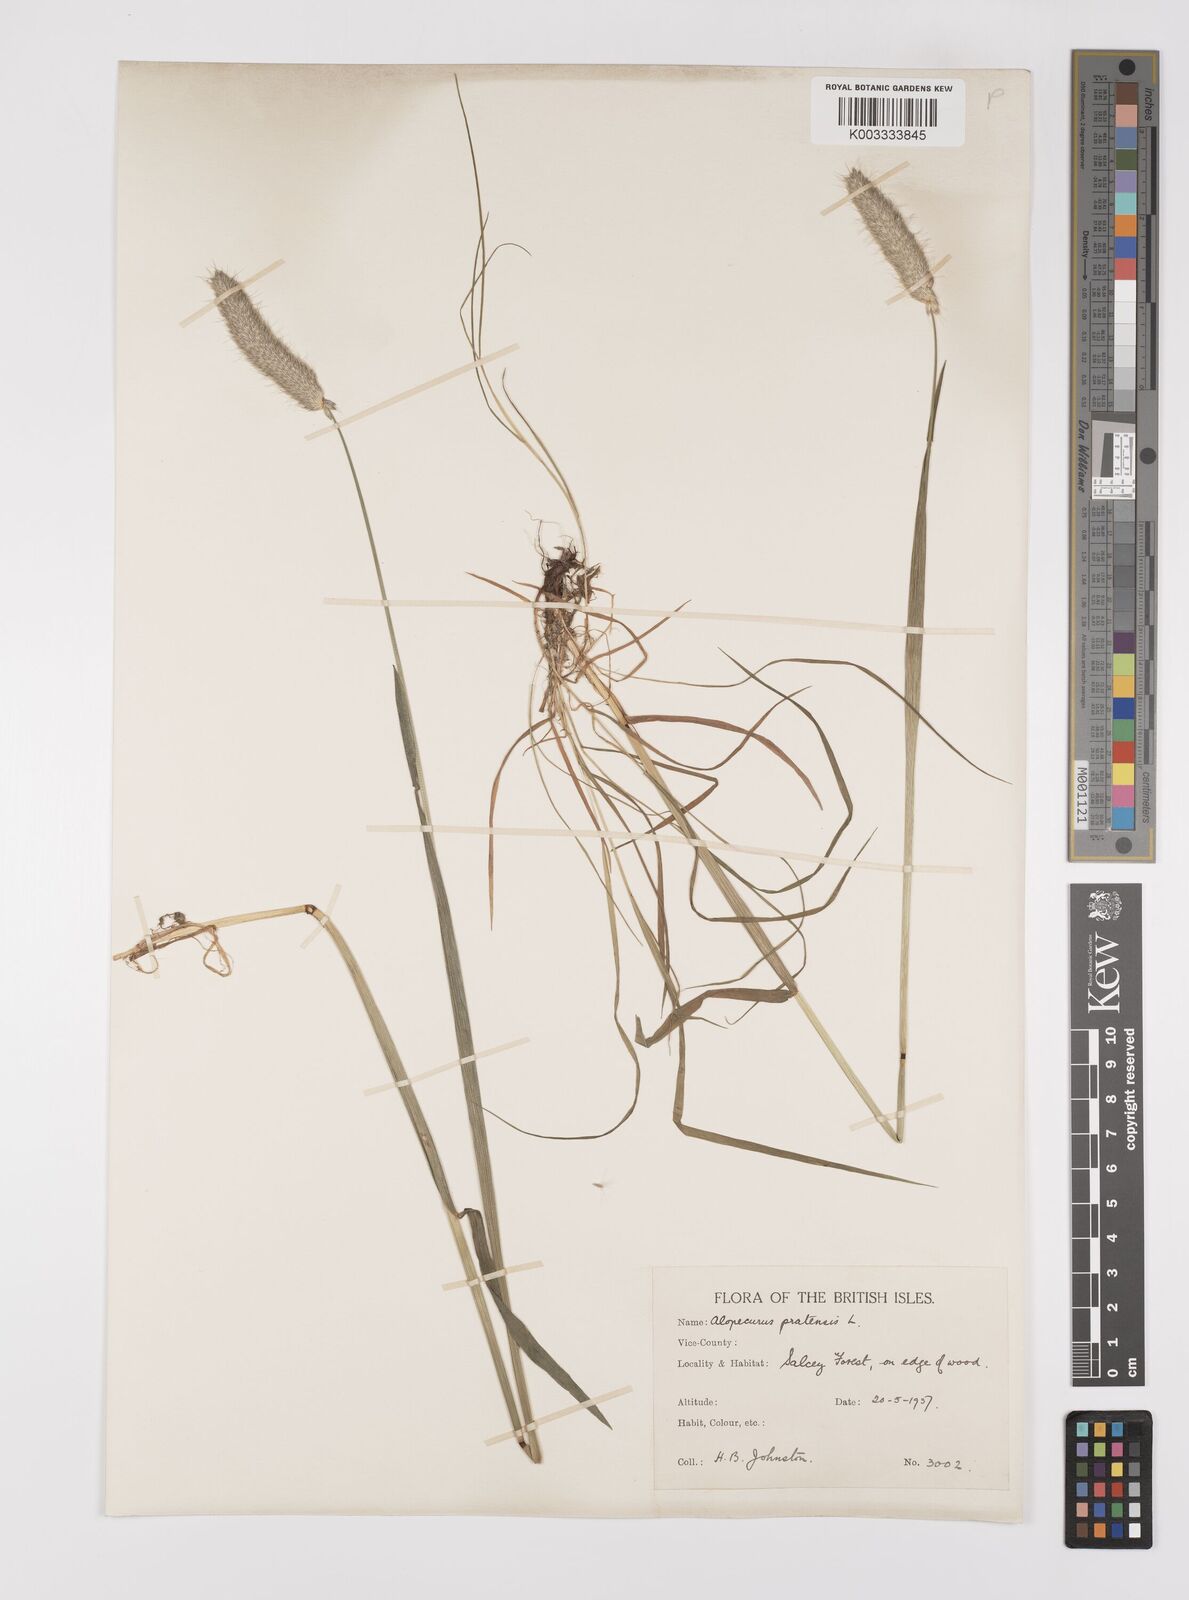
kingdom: Plantae
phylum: Tracheophyta
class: Liliopsida
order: Poales
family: Poaceae
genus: Alopecurus
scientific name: Alopecurus pratensis
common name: Meadow foxtail
